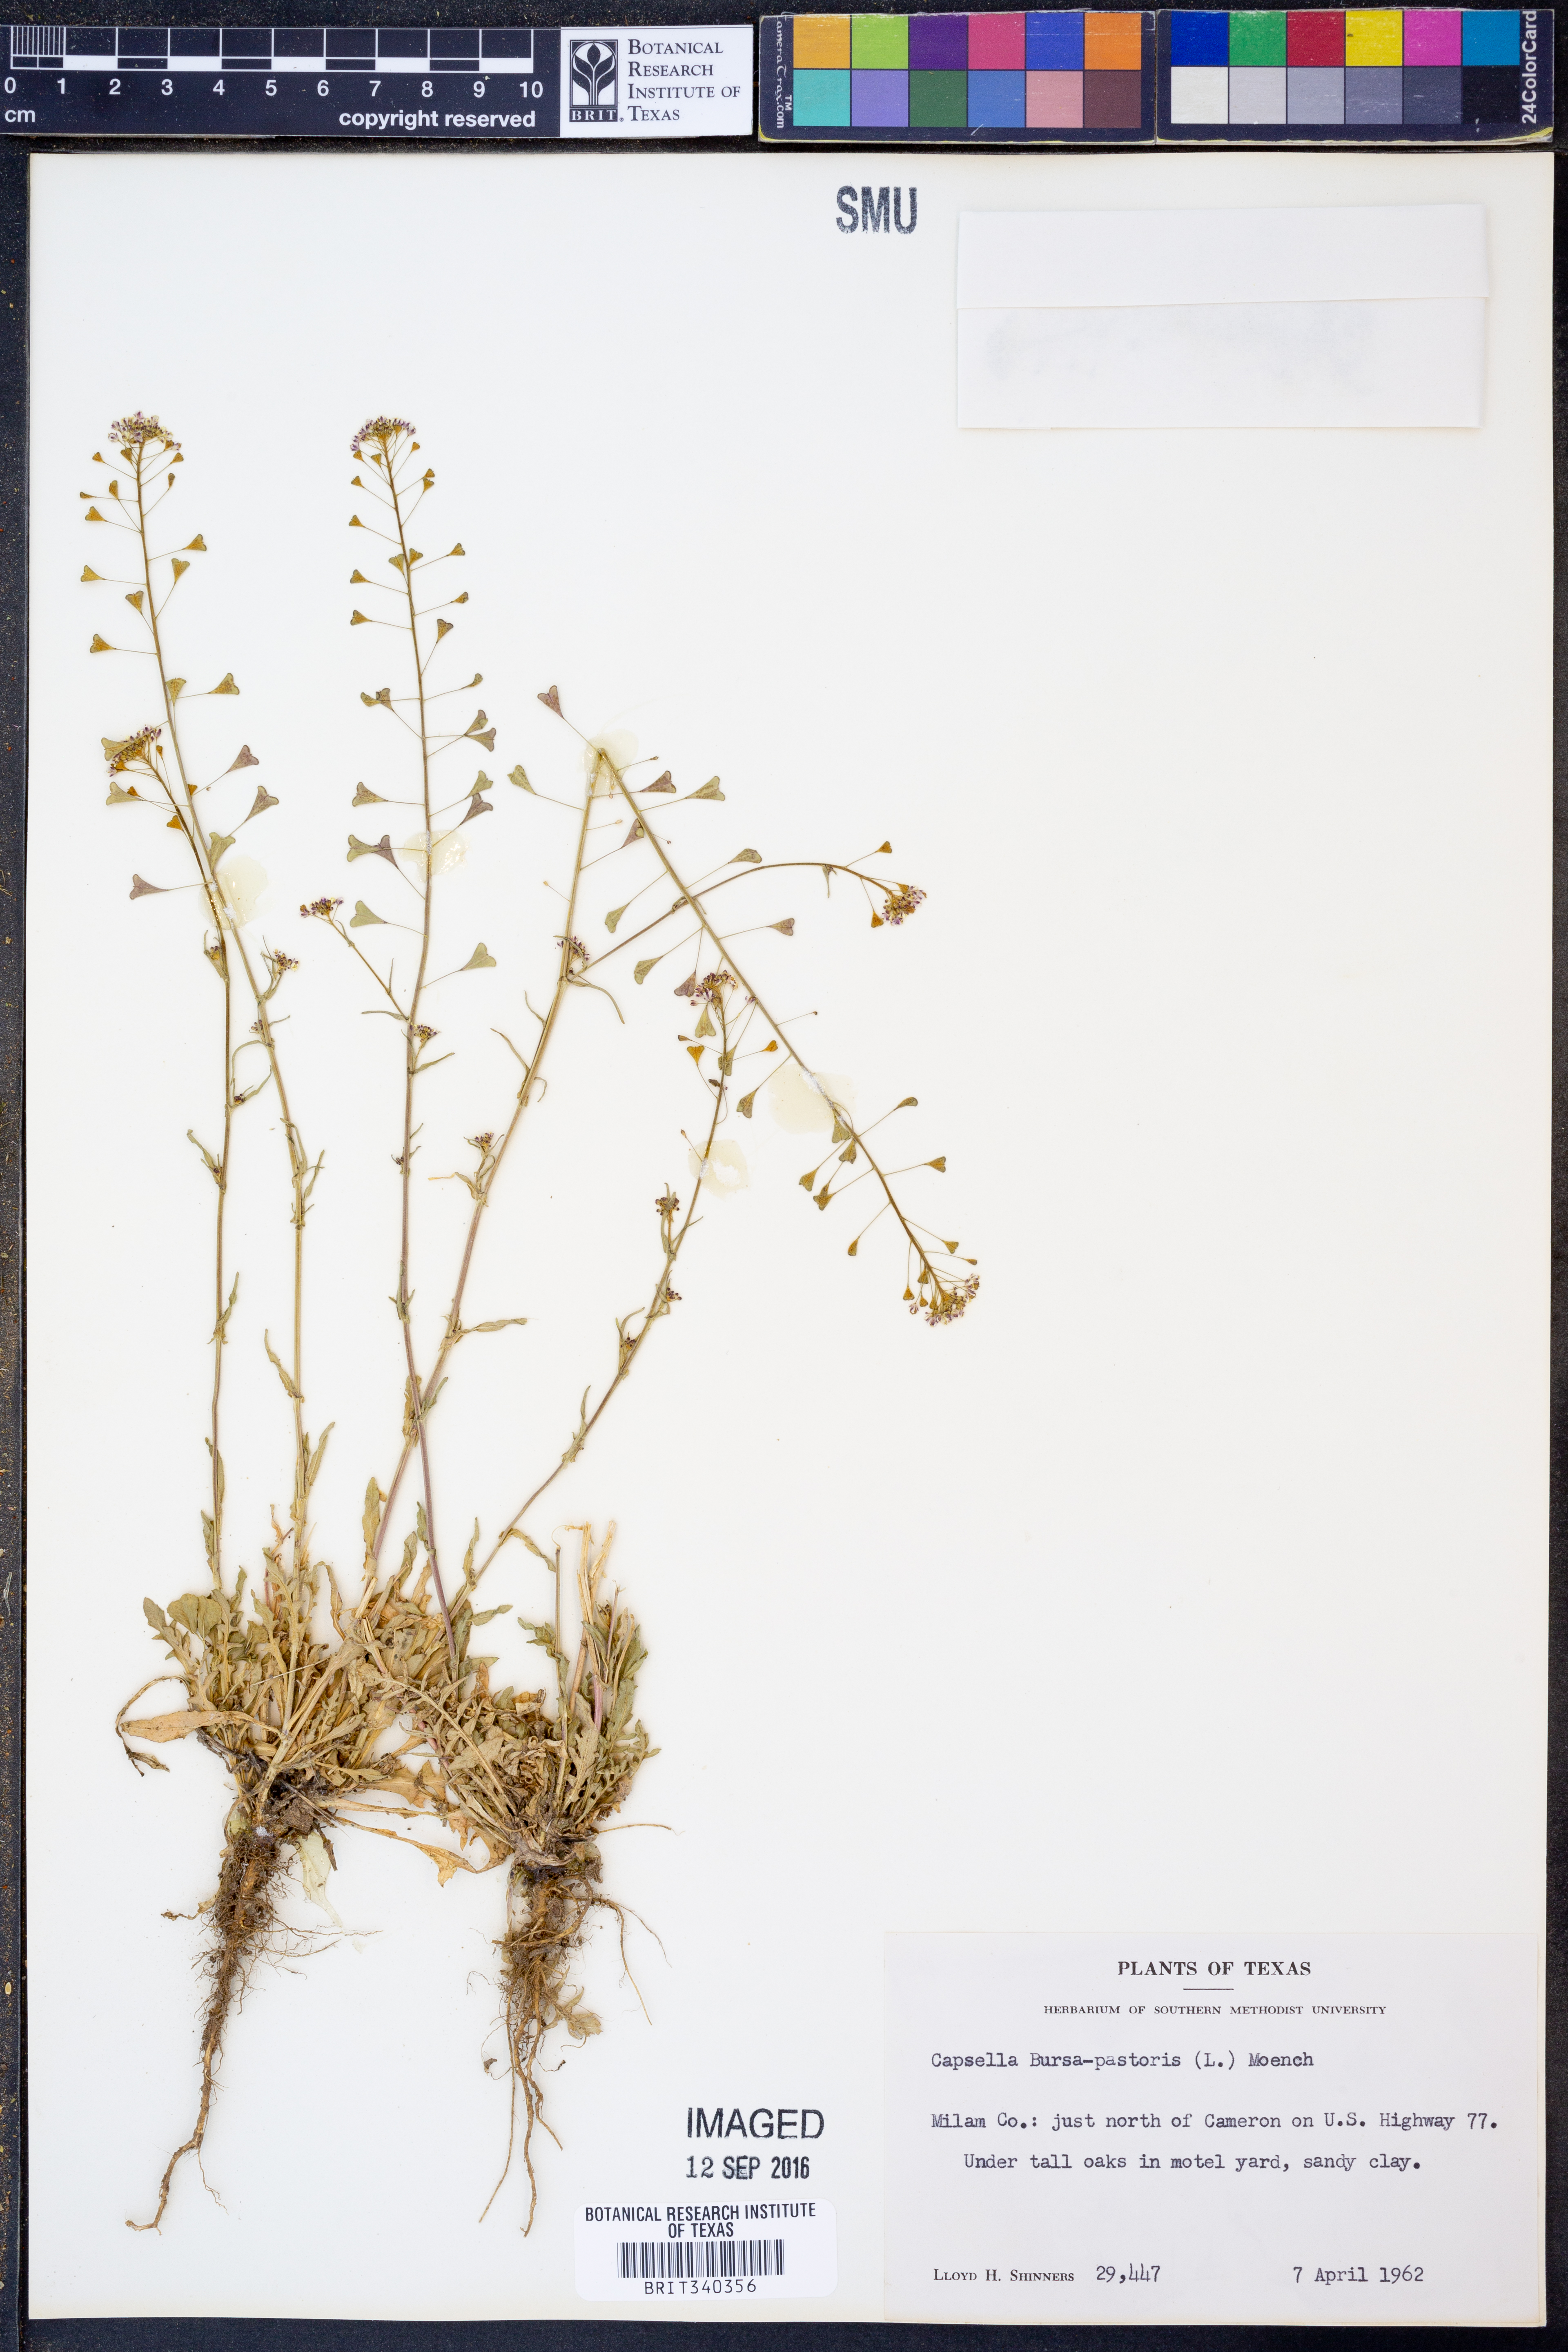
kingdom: Plantae
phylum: Tracheophyta
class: Magnoliopsida
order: Brassicales
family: Brassicaceae
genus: Capsella
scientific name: Capsella bursa-pastoris
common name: Shepherd's purse
